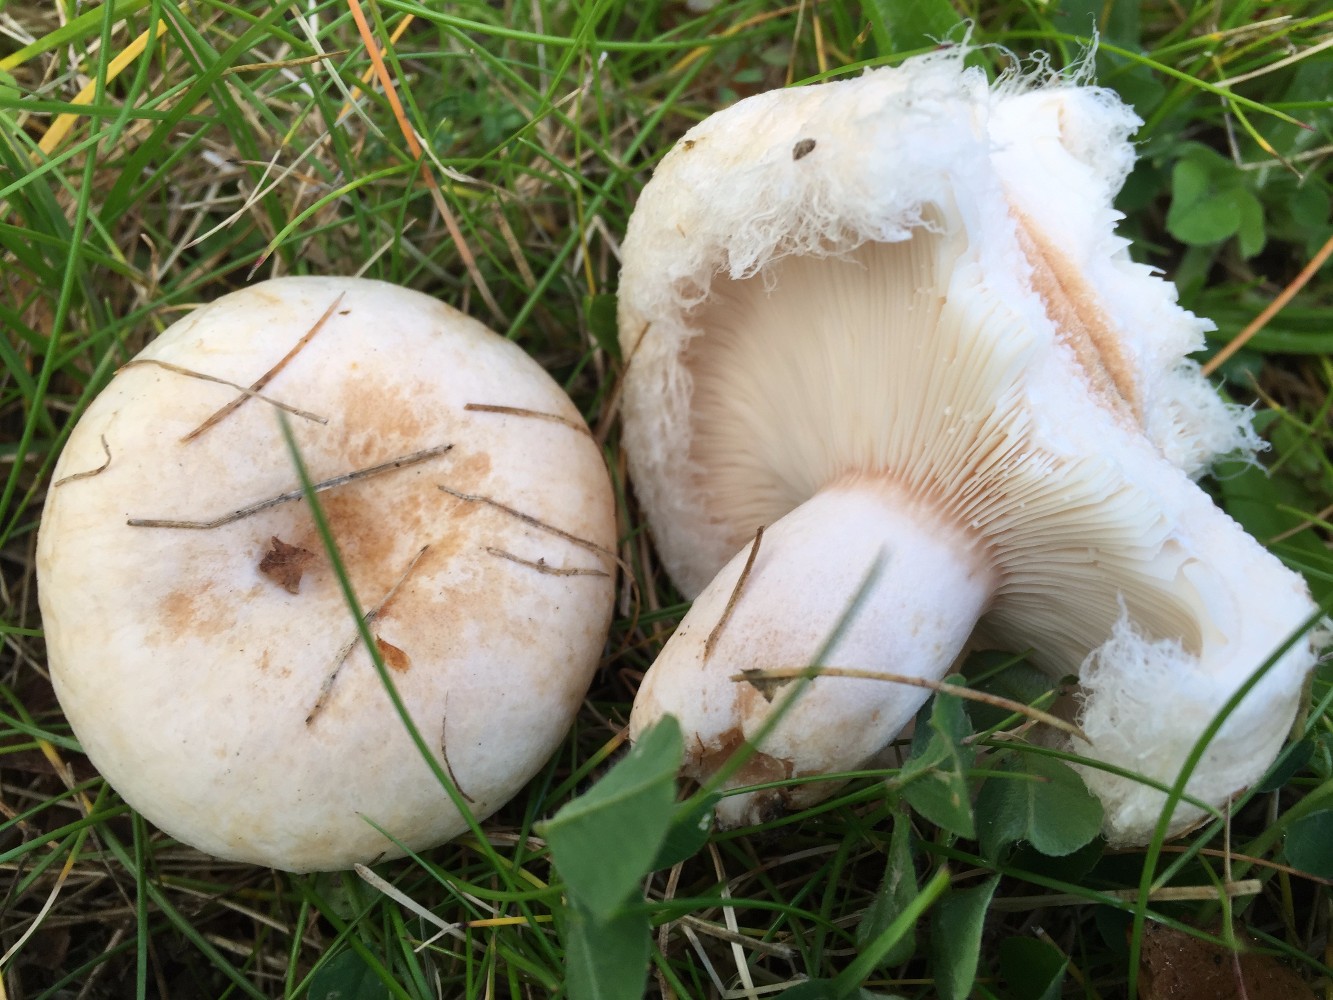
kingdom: Fungi
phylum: Basidiomycota
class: Agaricomycetes
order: Russulales
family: Russulaceae
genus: Lactarius
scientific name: Lactarius pubescens
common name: dunet mælkehat
